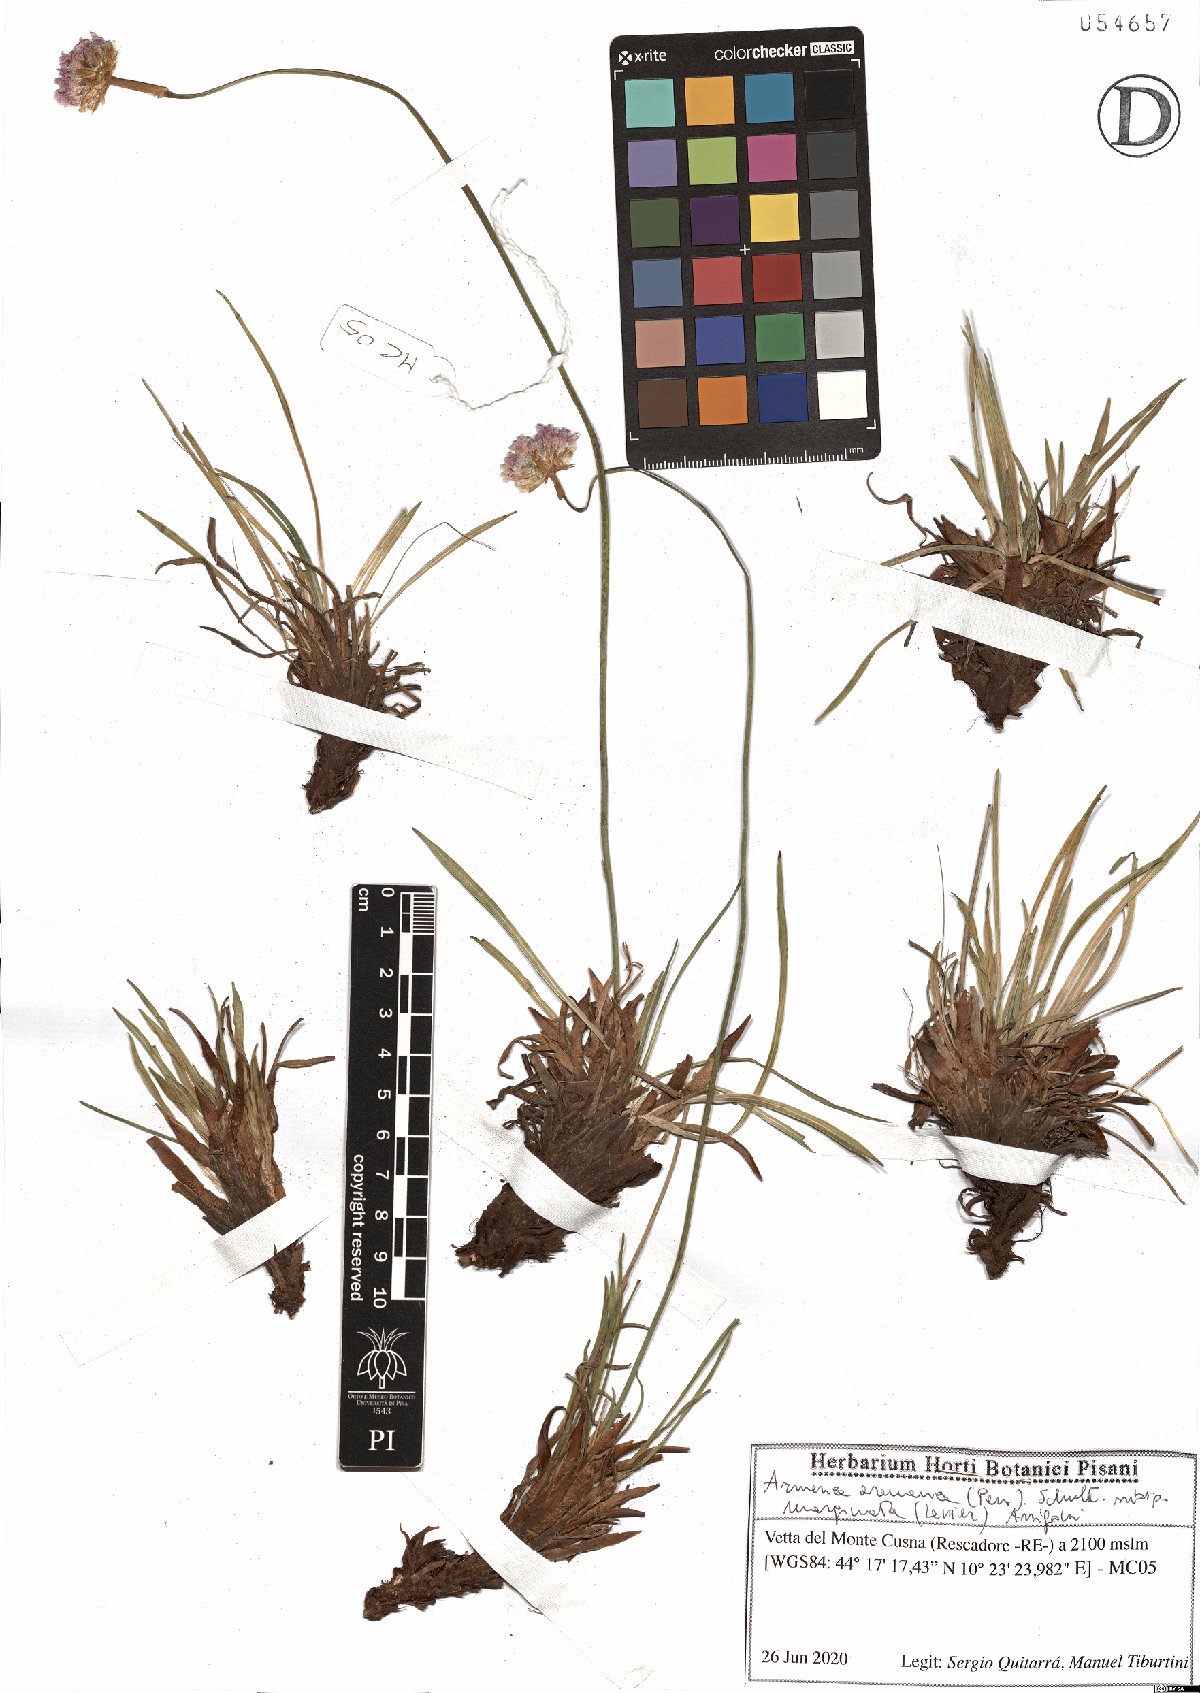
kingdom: Plantae
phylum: Tracheophyta
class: Magnoliopsida
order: Caryophyllales
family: Plumbaginaceae
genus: Armeria
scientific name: Armeria arenaria
